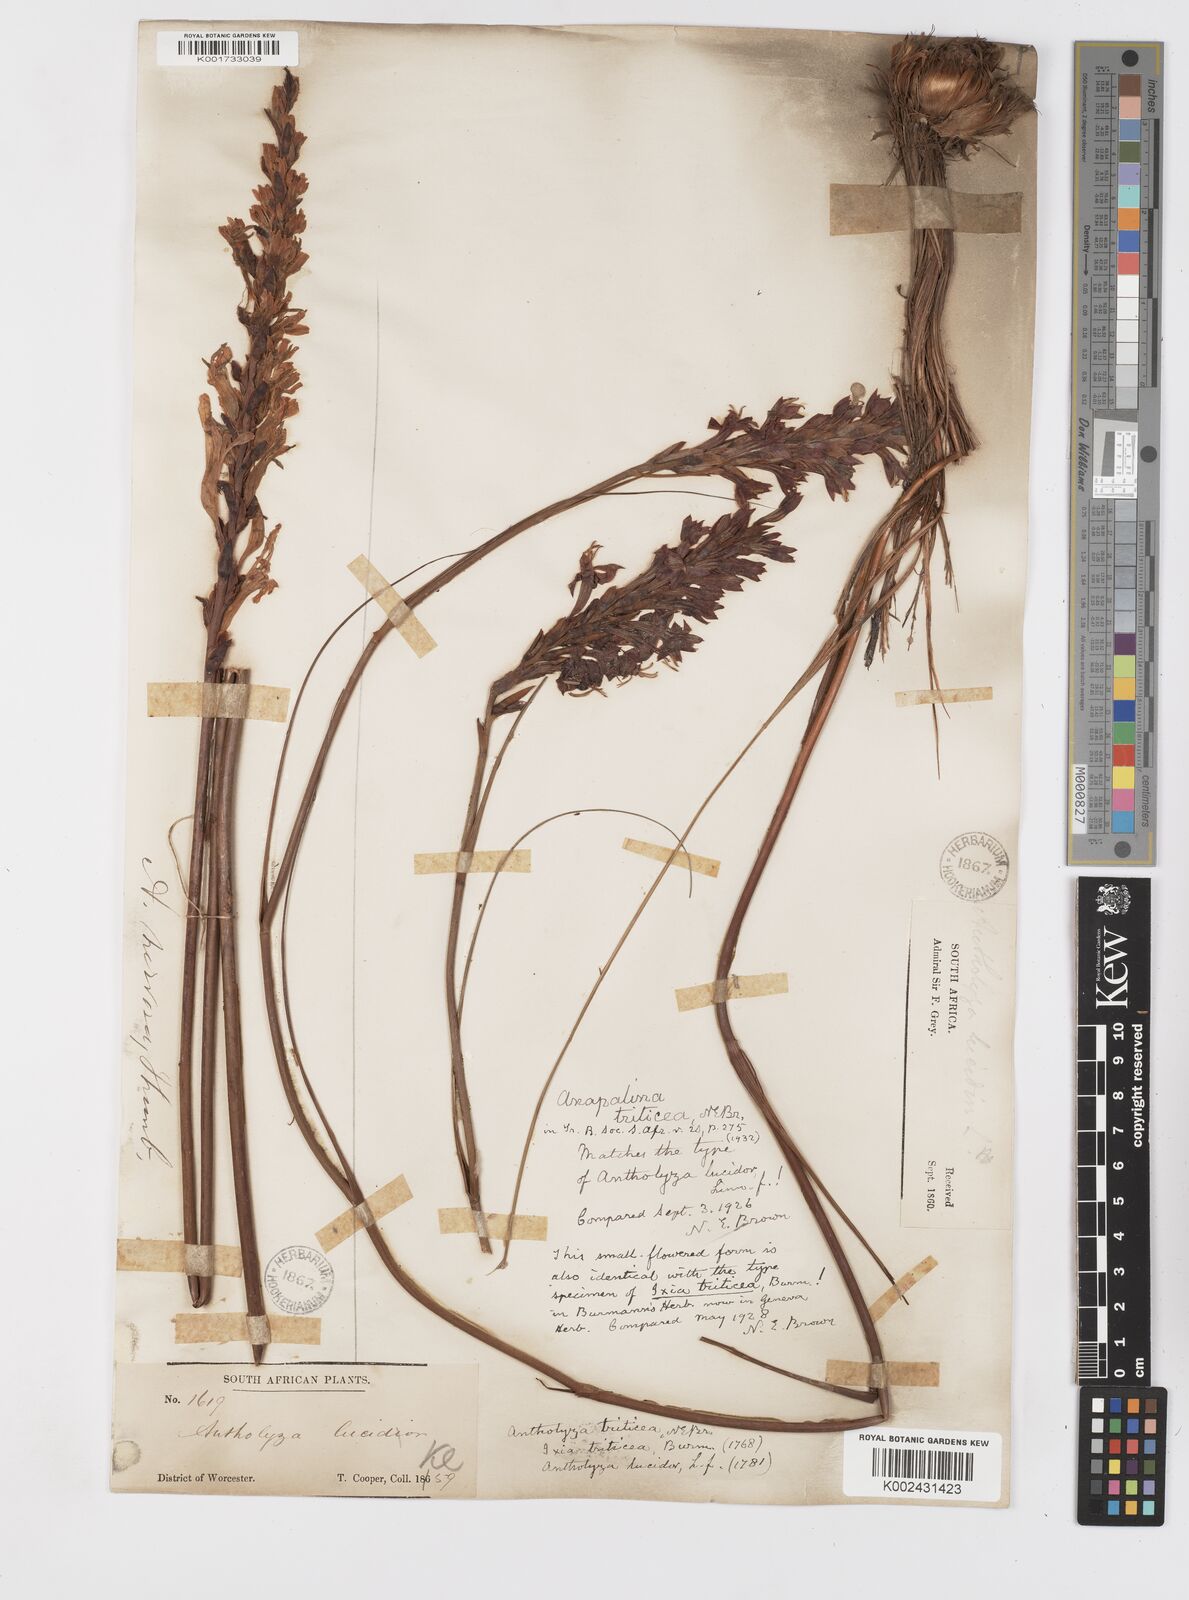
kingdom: Plantae
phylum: Tracheophyta
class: Liliopsida
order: Asparagales
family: Iridaceae
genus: Tritoniopsis
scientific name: Tritoniopsis triticea
